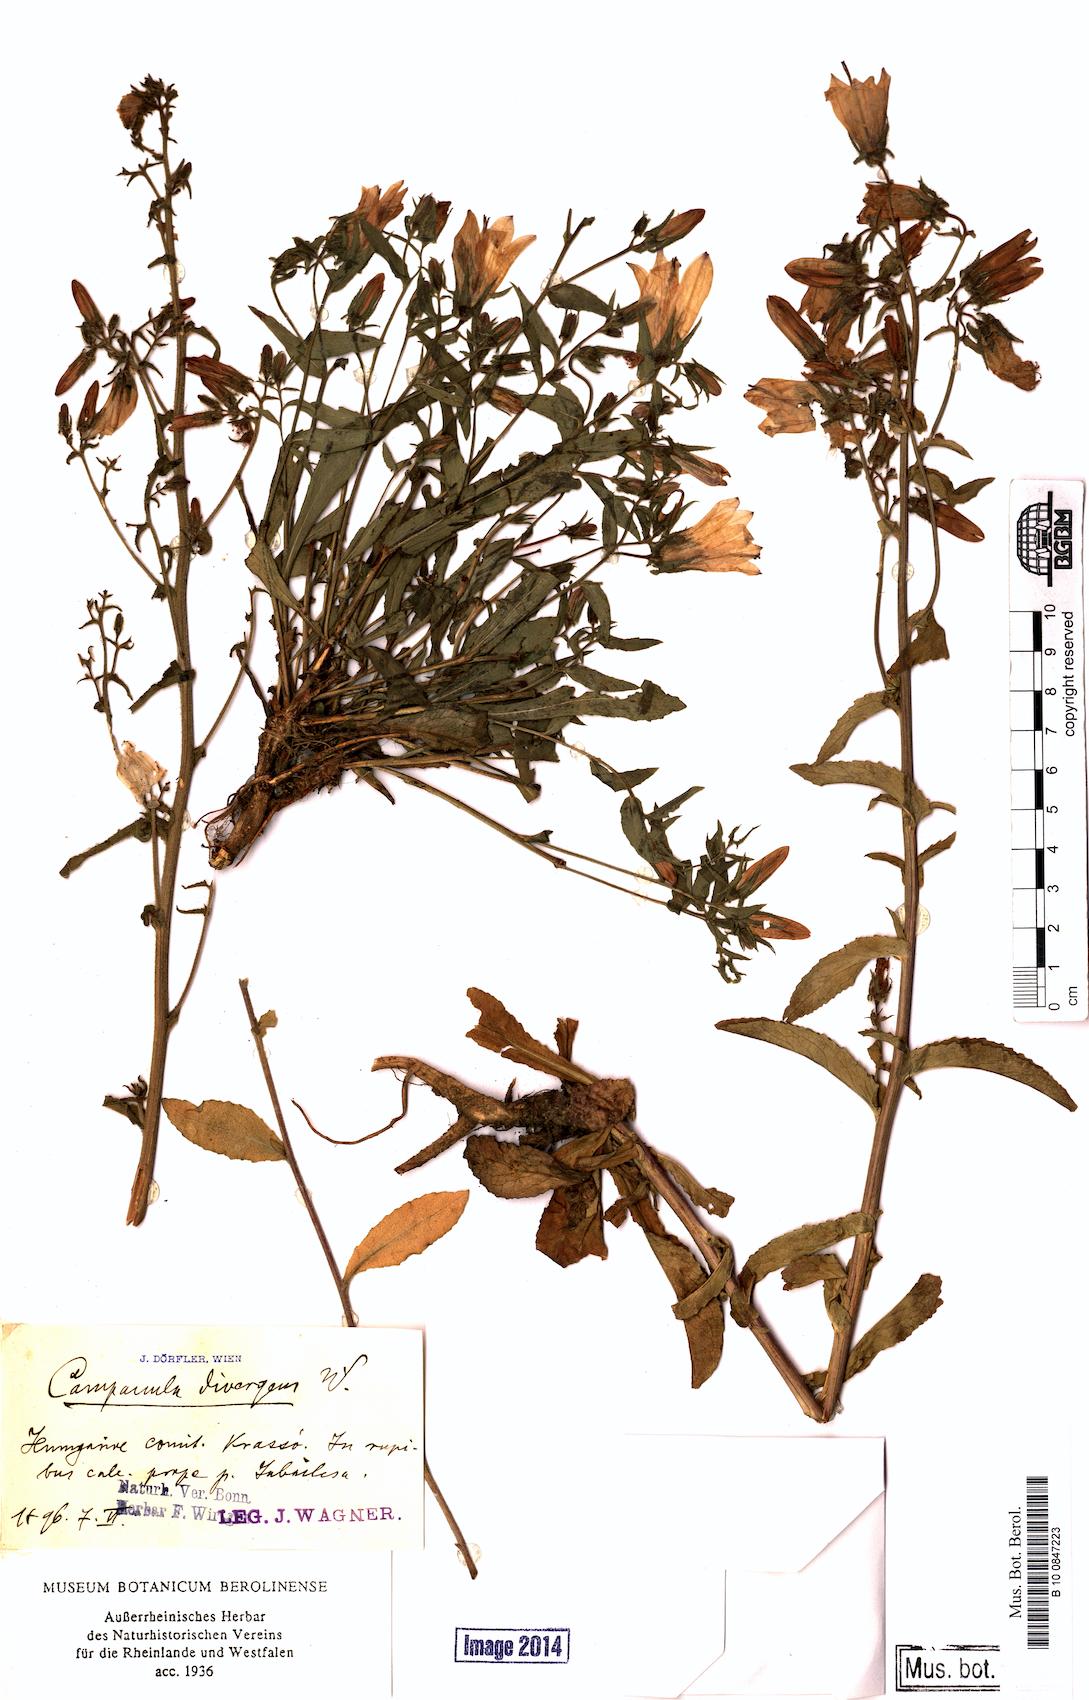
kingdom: Plantae
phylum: Tracheophyta
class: Magnoliopsida
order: Asterales
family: Campanulaceae
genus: Campanula
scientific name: Campanula sibirica
